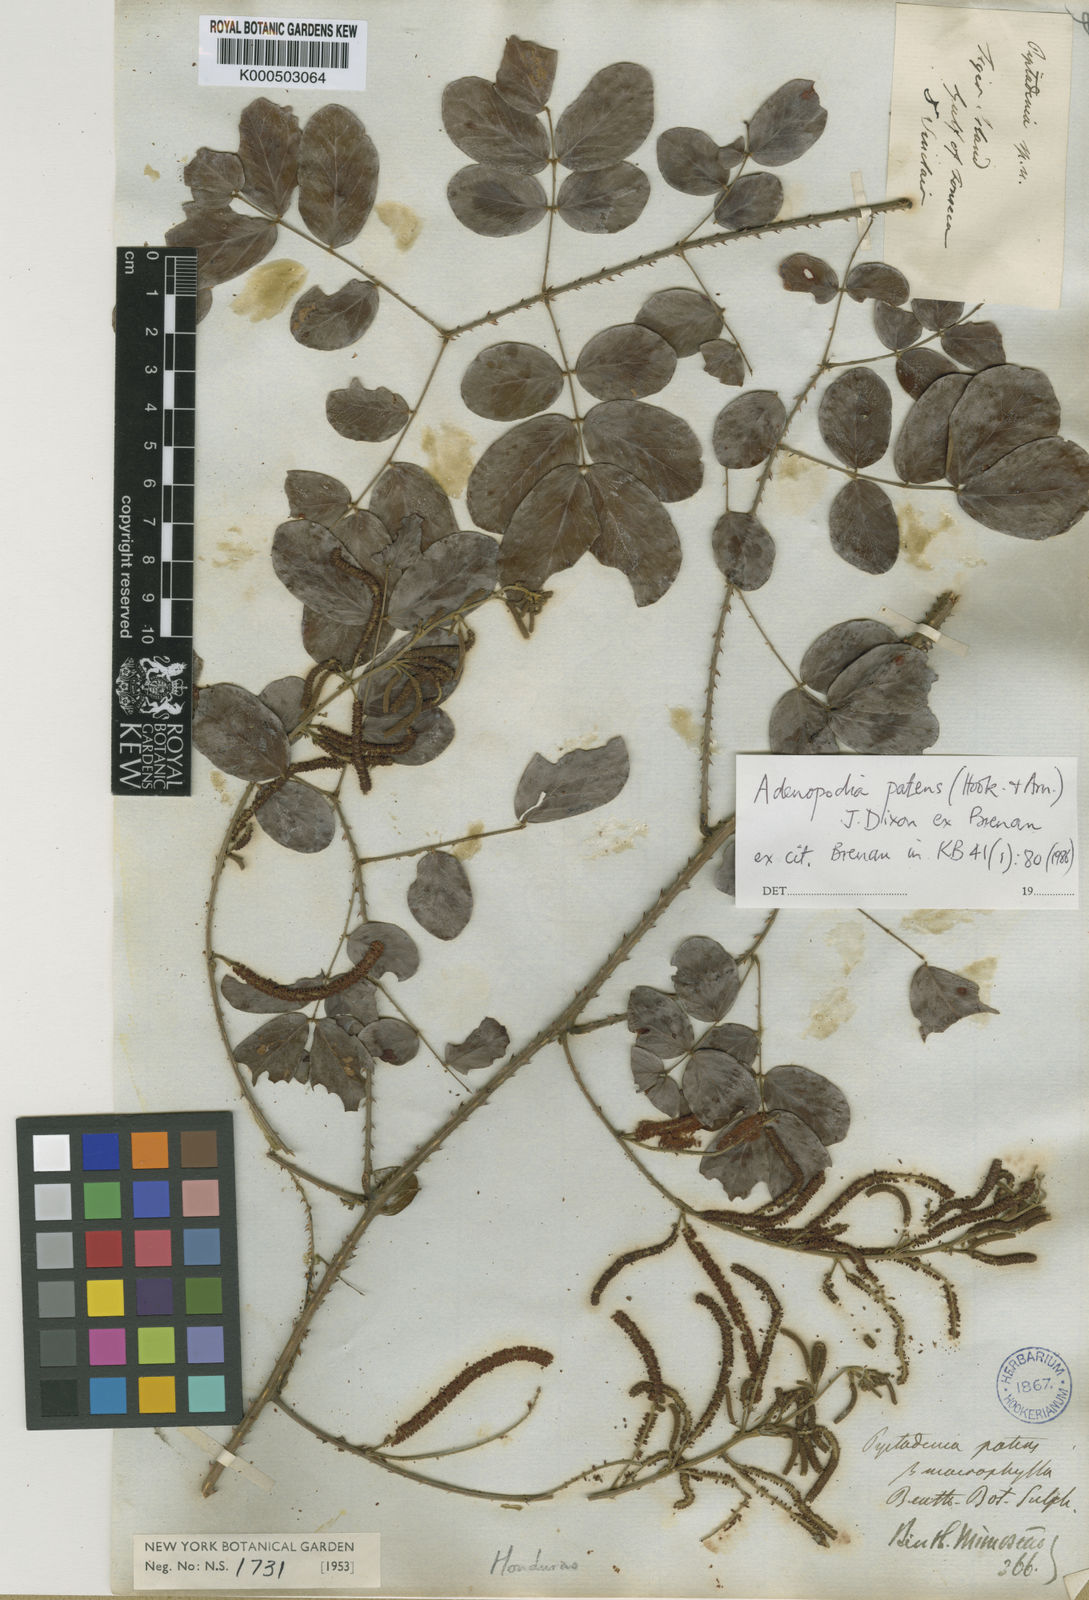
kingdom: Plantae
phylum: Tracheophyta
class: Magnoliopsida
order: Fabales
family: Fabaceae
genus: Adenopodia
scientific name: Adenopodia patens
